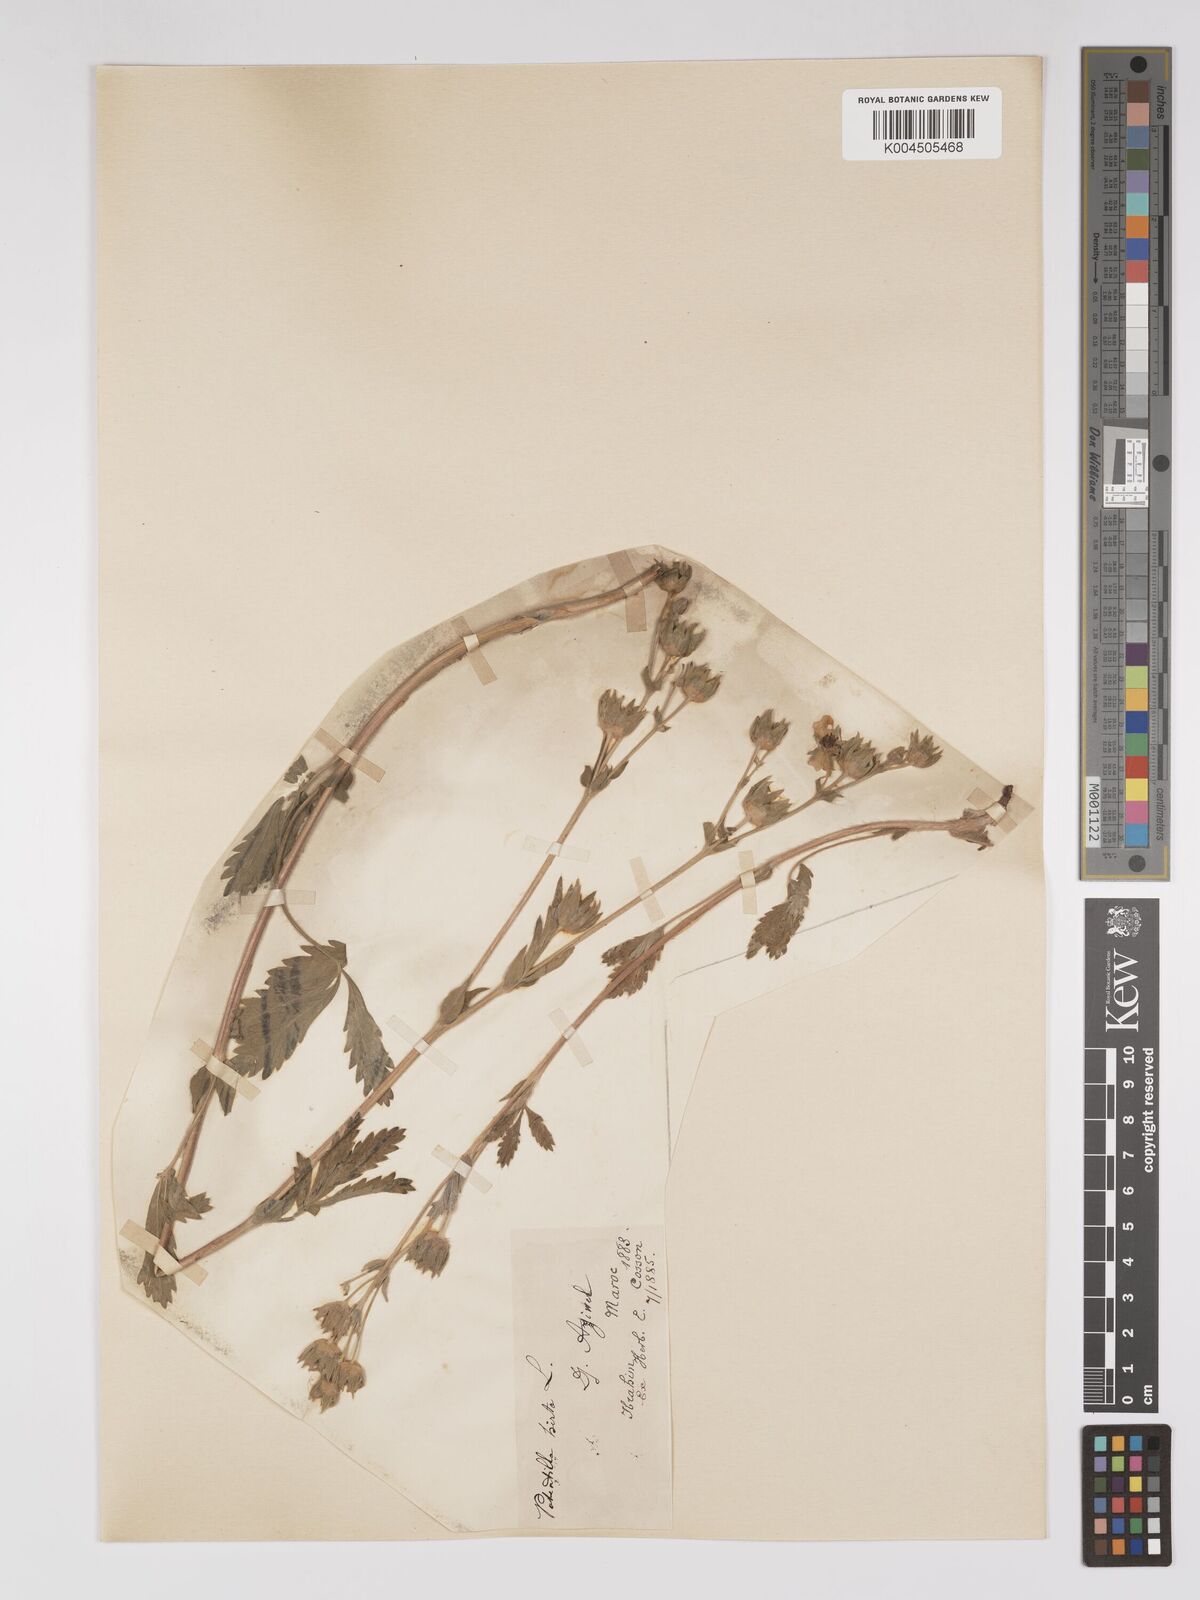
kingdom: Plantae
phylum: Tracheophyta
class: Magnoliopsida
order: Rosales
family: Rosaceae
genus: Potentilla
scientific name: Potentilla hirta
